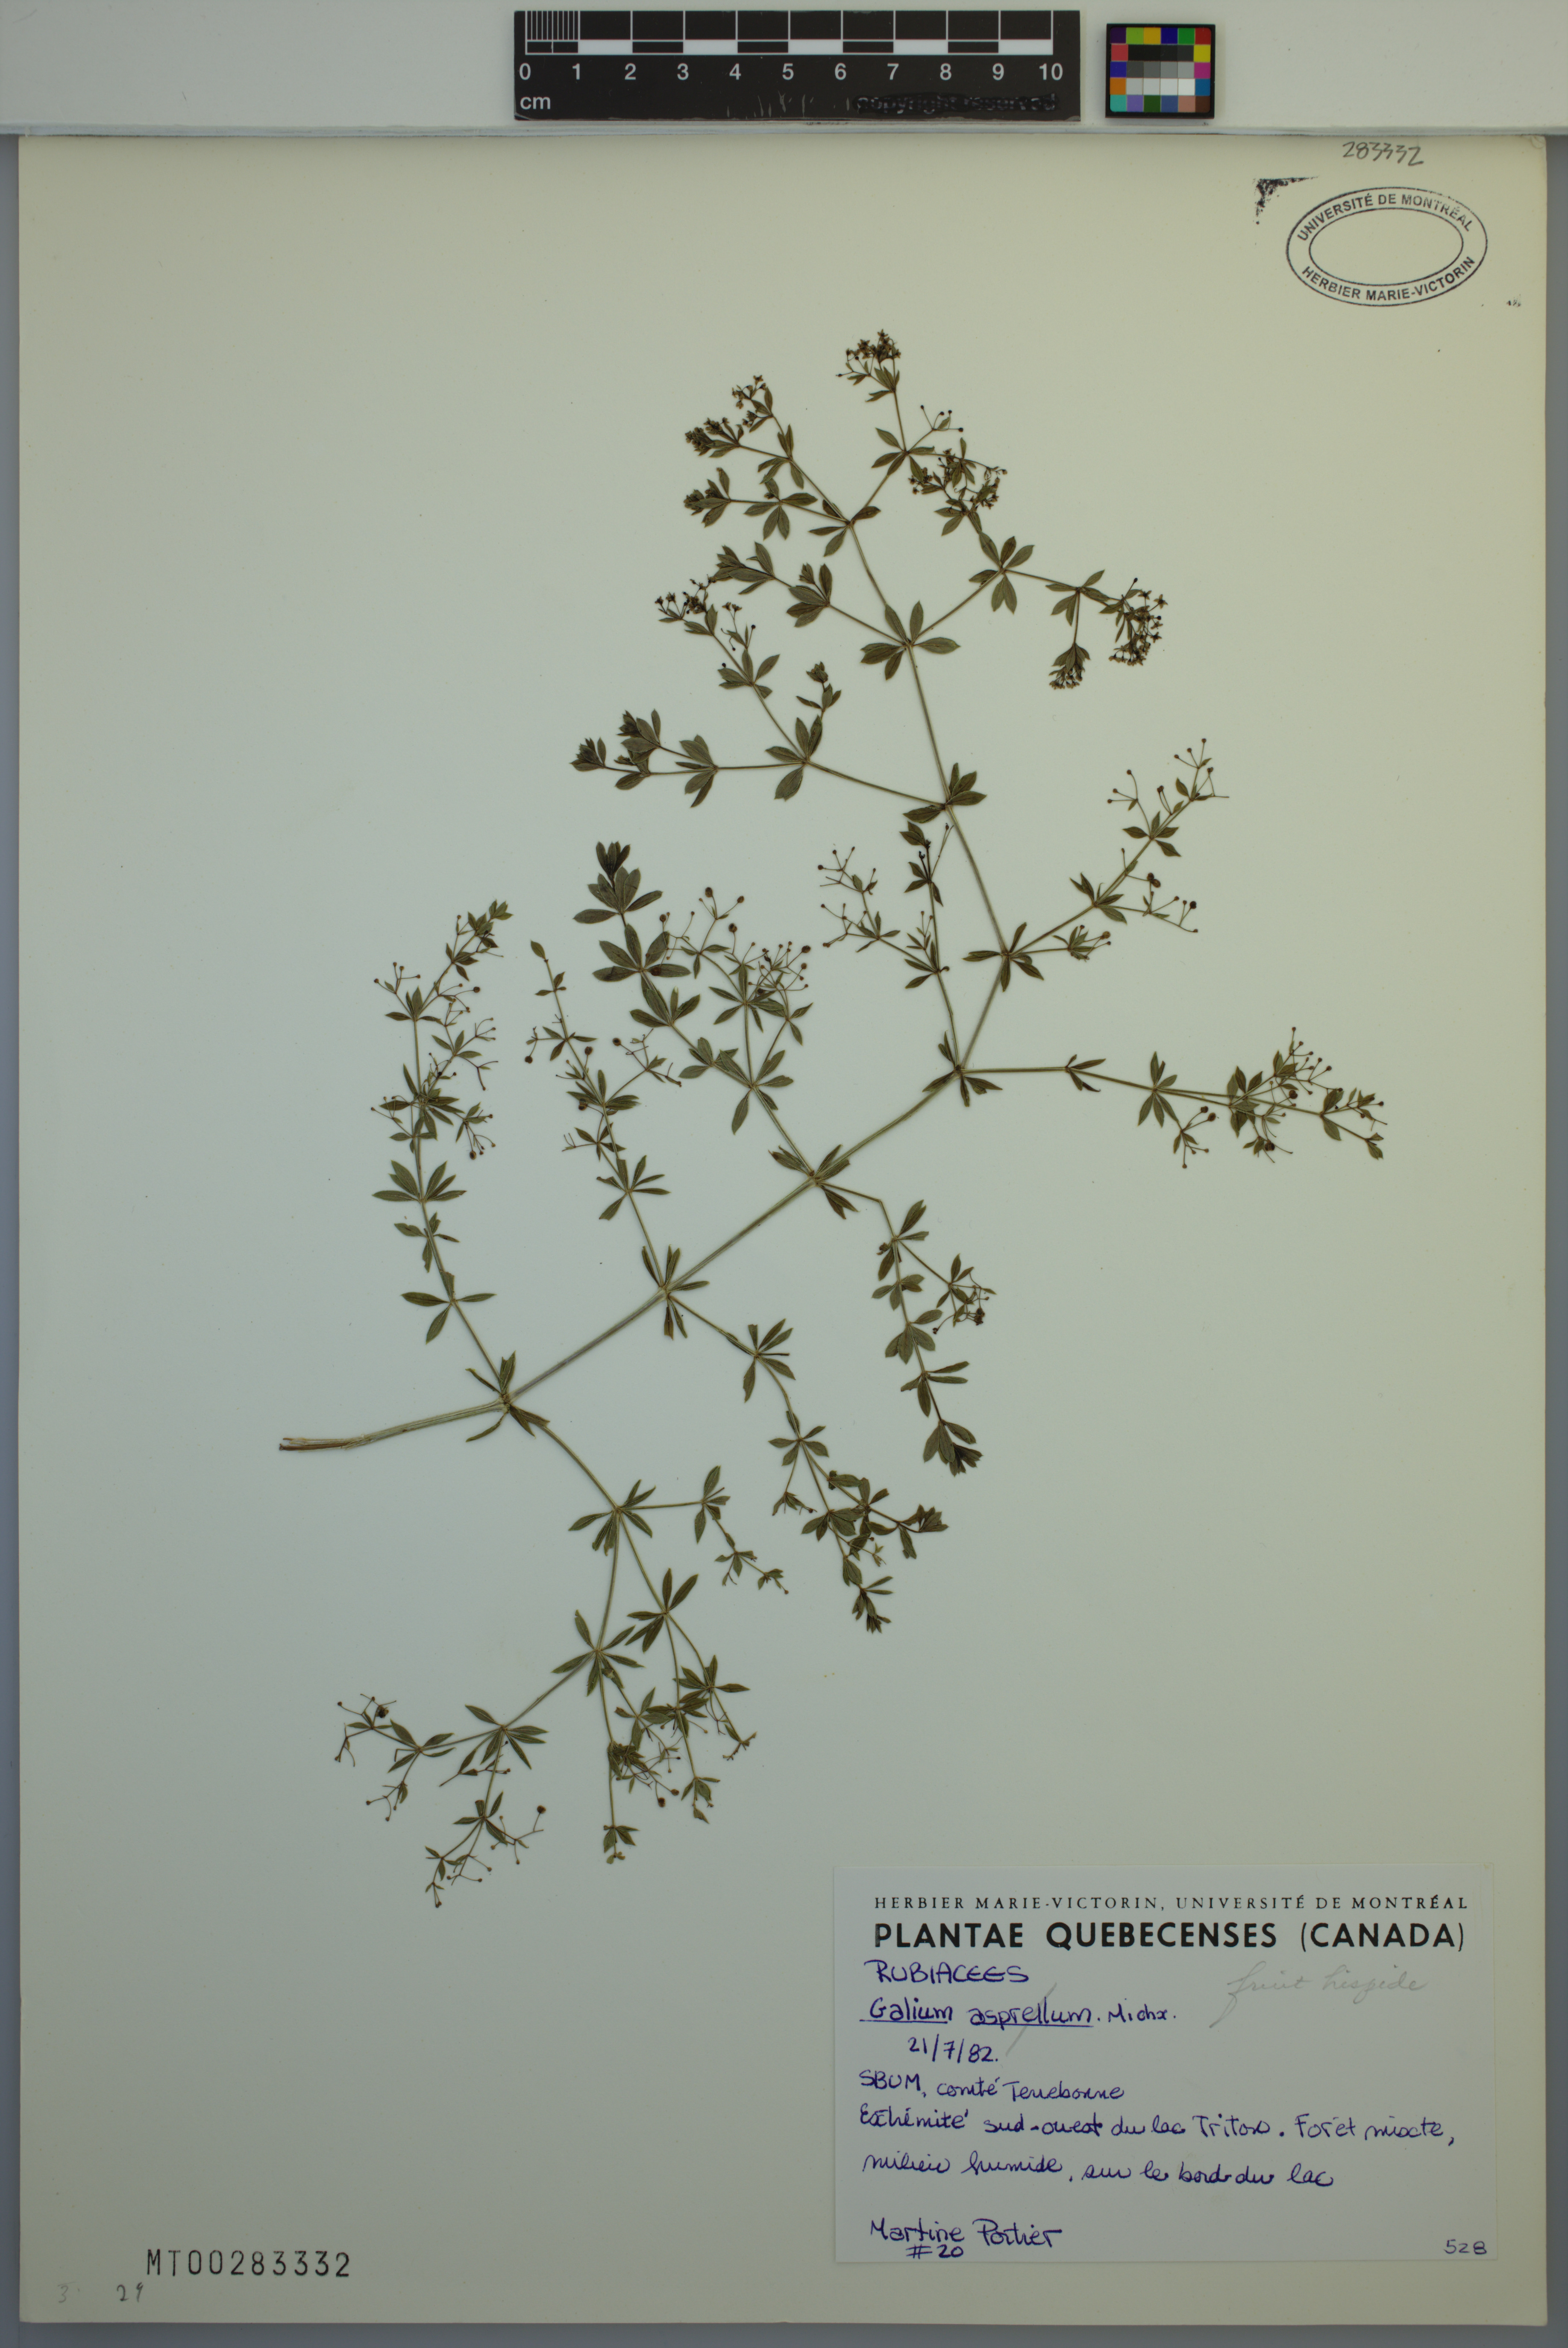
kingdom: Plantae
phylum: Tracheophyta
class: Magnoliopsida
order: Gentianales
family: Rubiaceae
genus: Galium
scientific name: Galium asprellum
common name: Rough bedstraw
